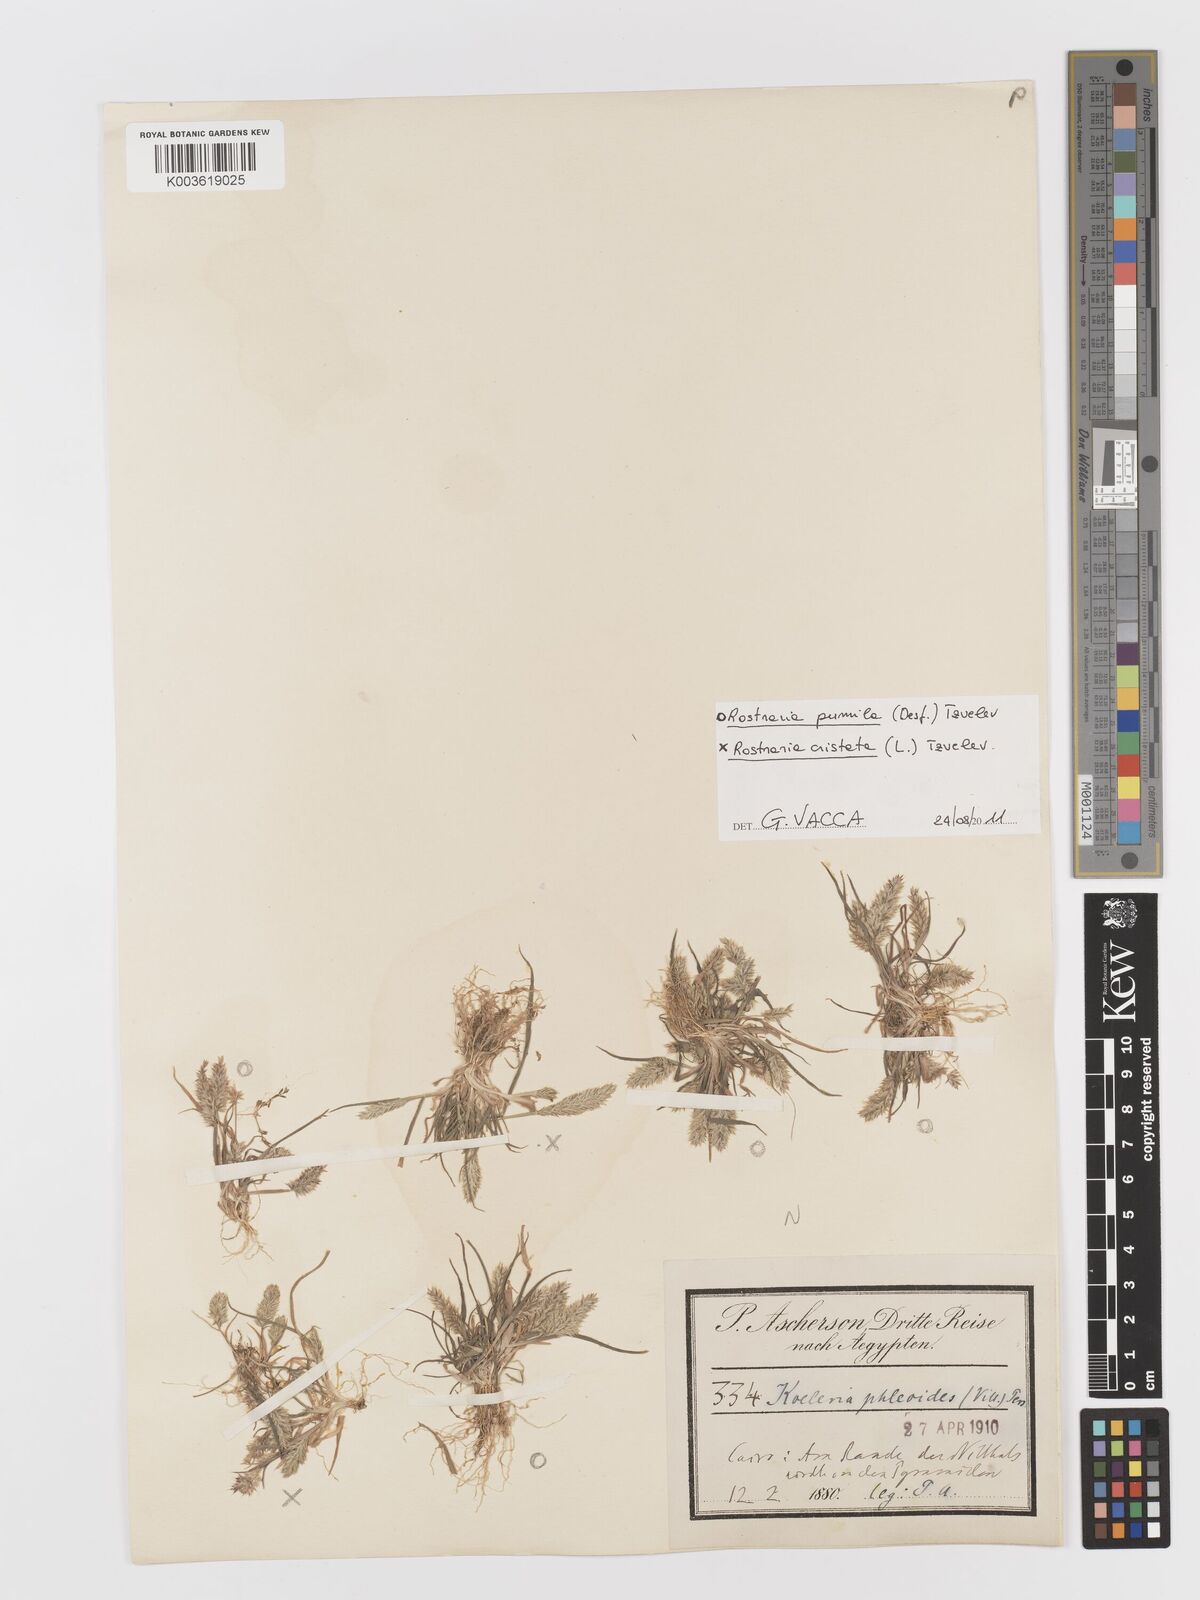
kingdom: Plantae
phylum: Tracheophyta
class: Liliopsida
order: Poales
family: Poaceae
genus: Rostraria
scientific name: Rostraria cristata
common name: Mediterranean hair-grass
